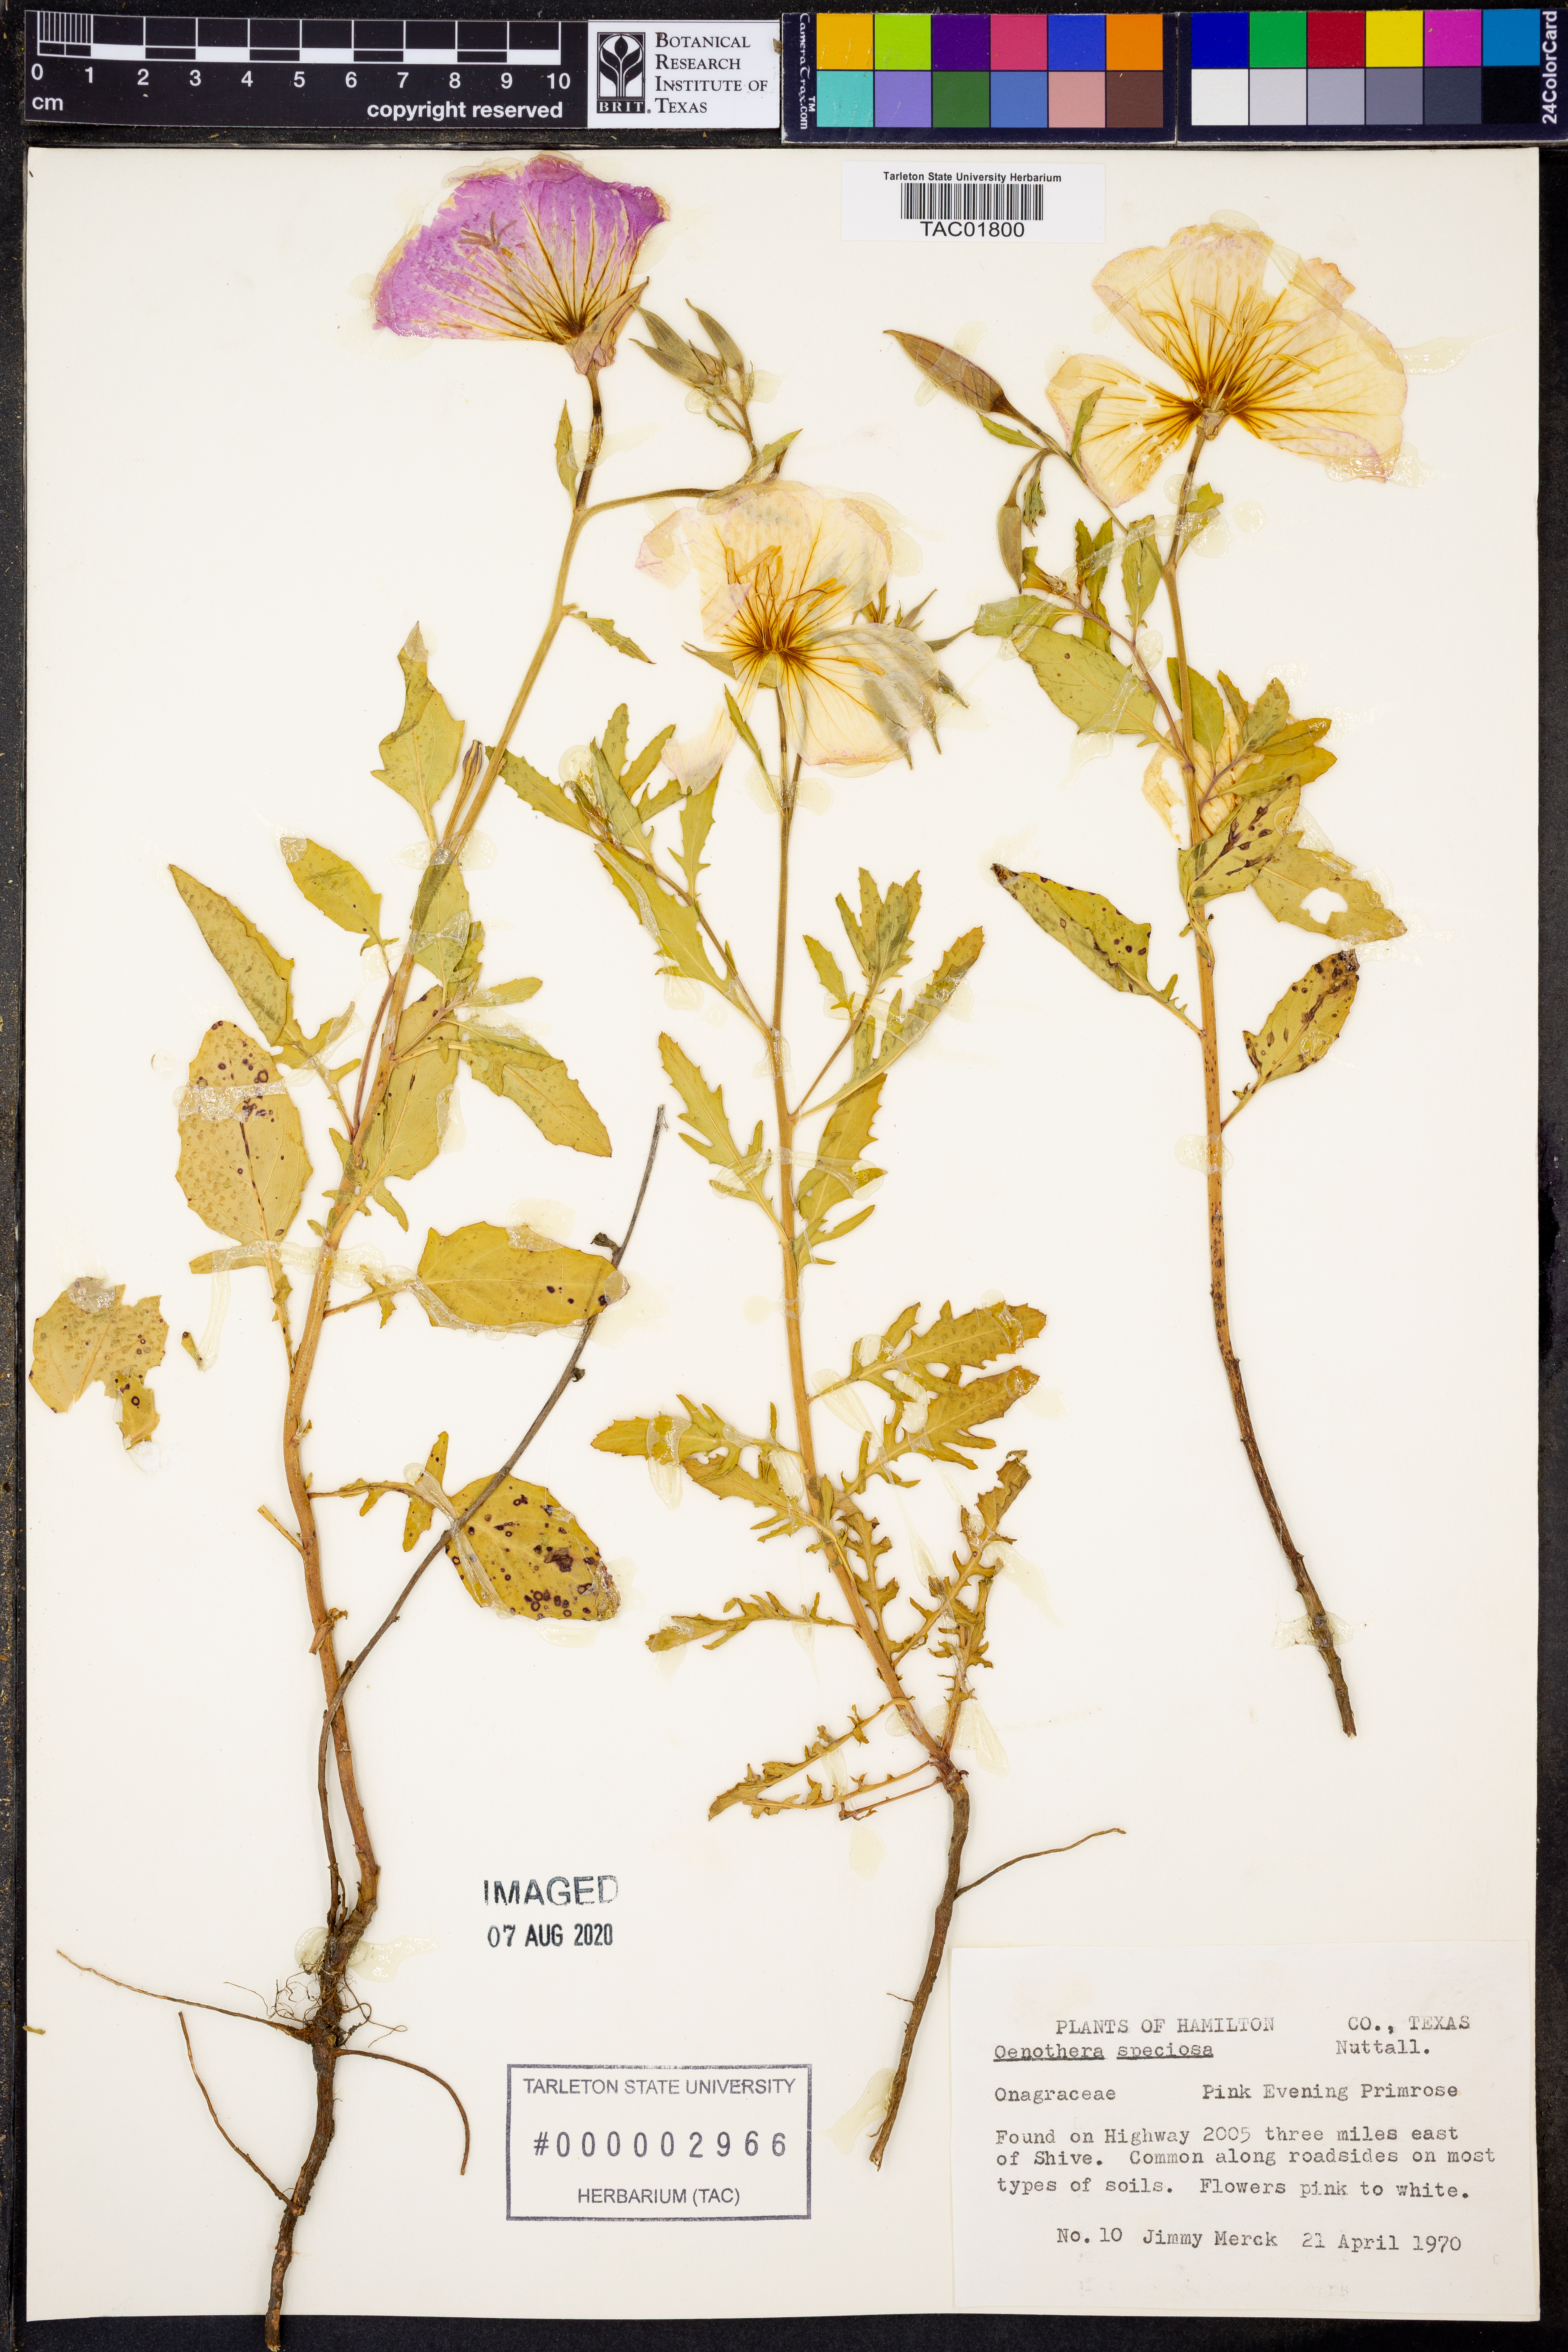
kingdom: Plantae
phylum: Tracheophyta
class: Magnoliopsida
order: Myrtales
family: Onagraceae
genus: Oenothera
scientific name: Oenothera speciosa
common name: White evening-primrose
